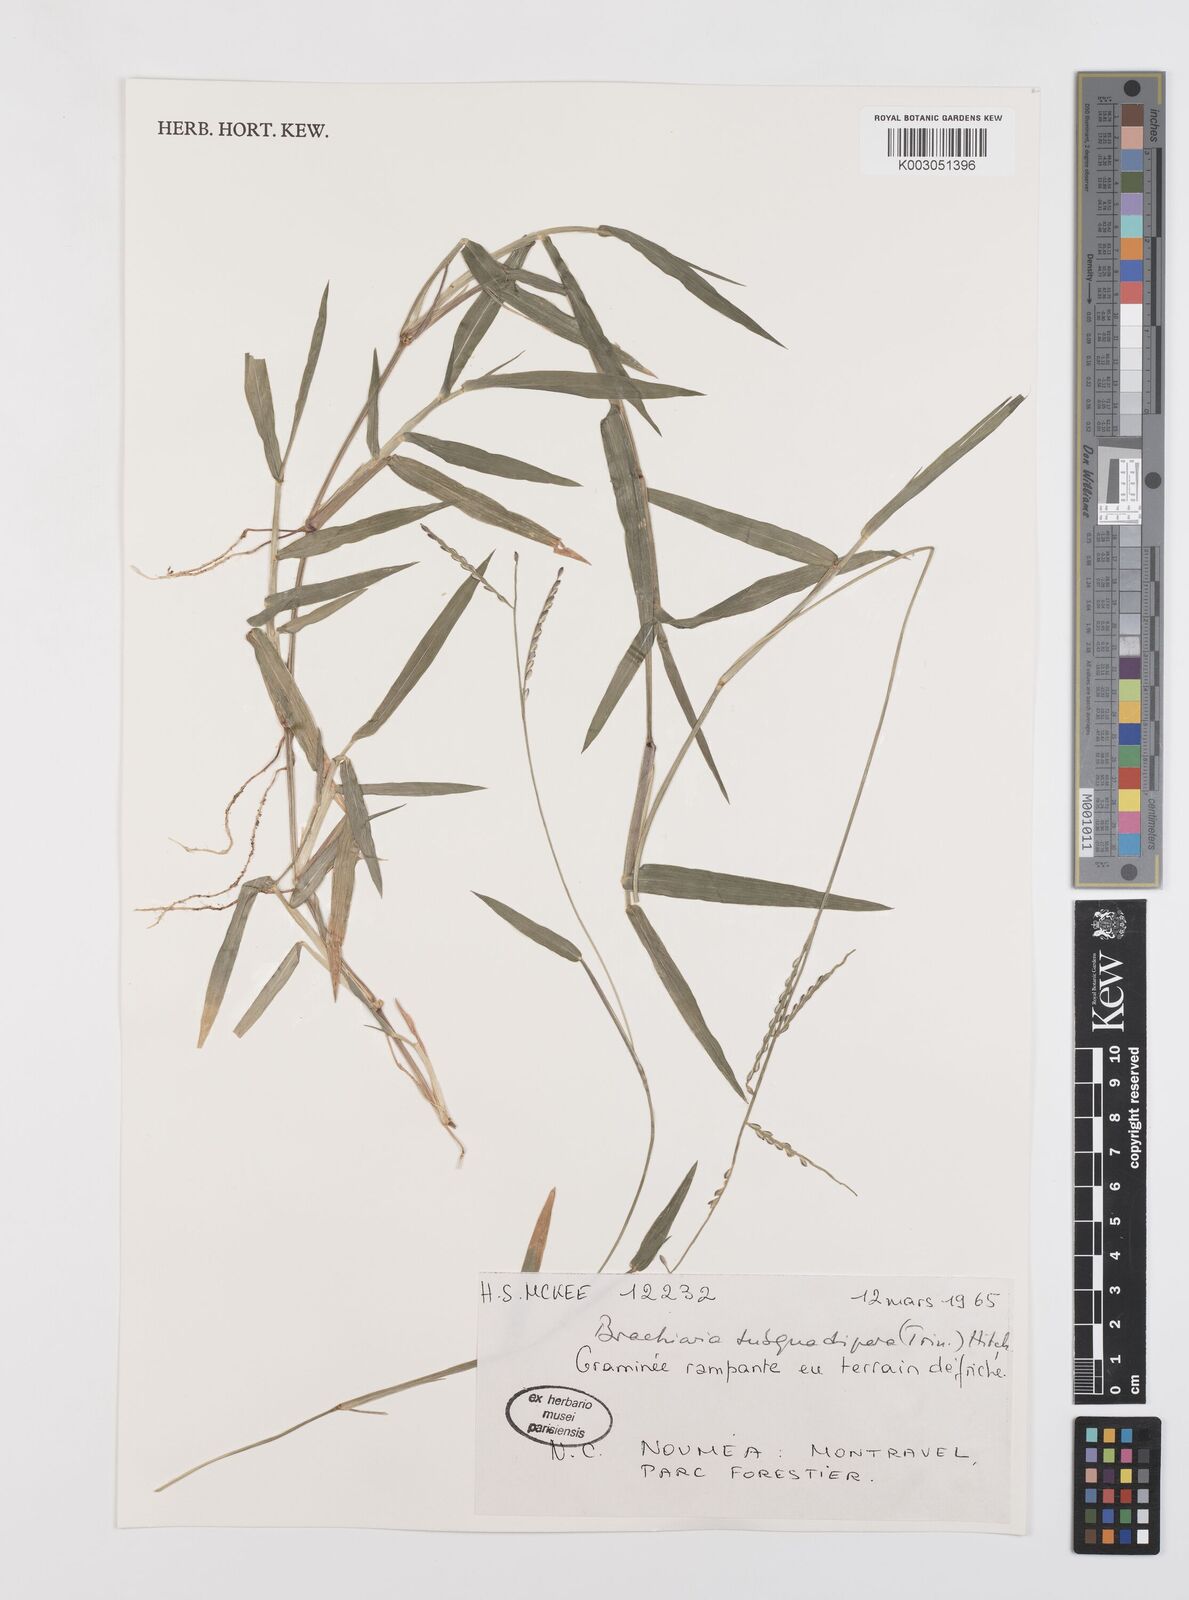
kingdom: Plantae
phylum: Tracheophyta
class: Liliopsida
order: Poales
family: Poaceae
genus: Urochloa
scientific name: Urochloa subquadripara
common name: Armgrass millet
